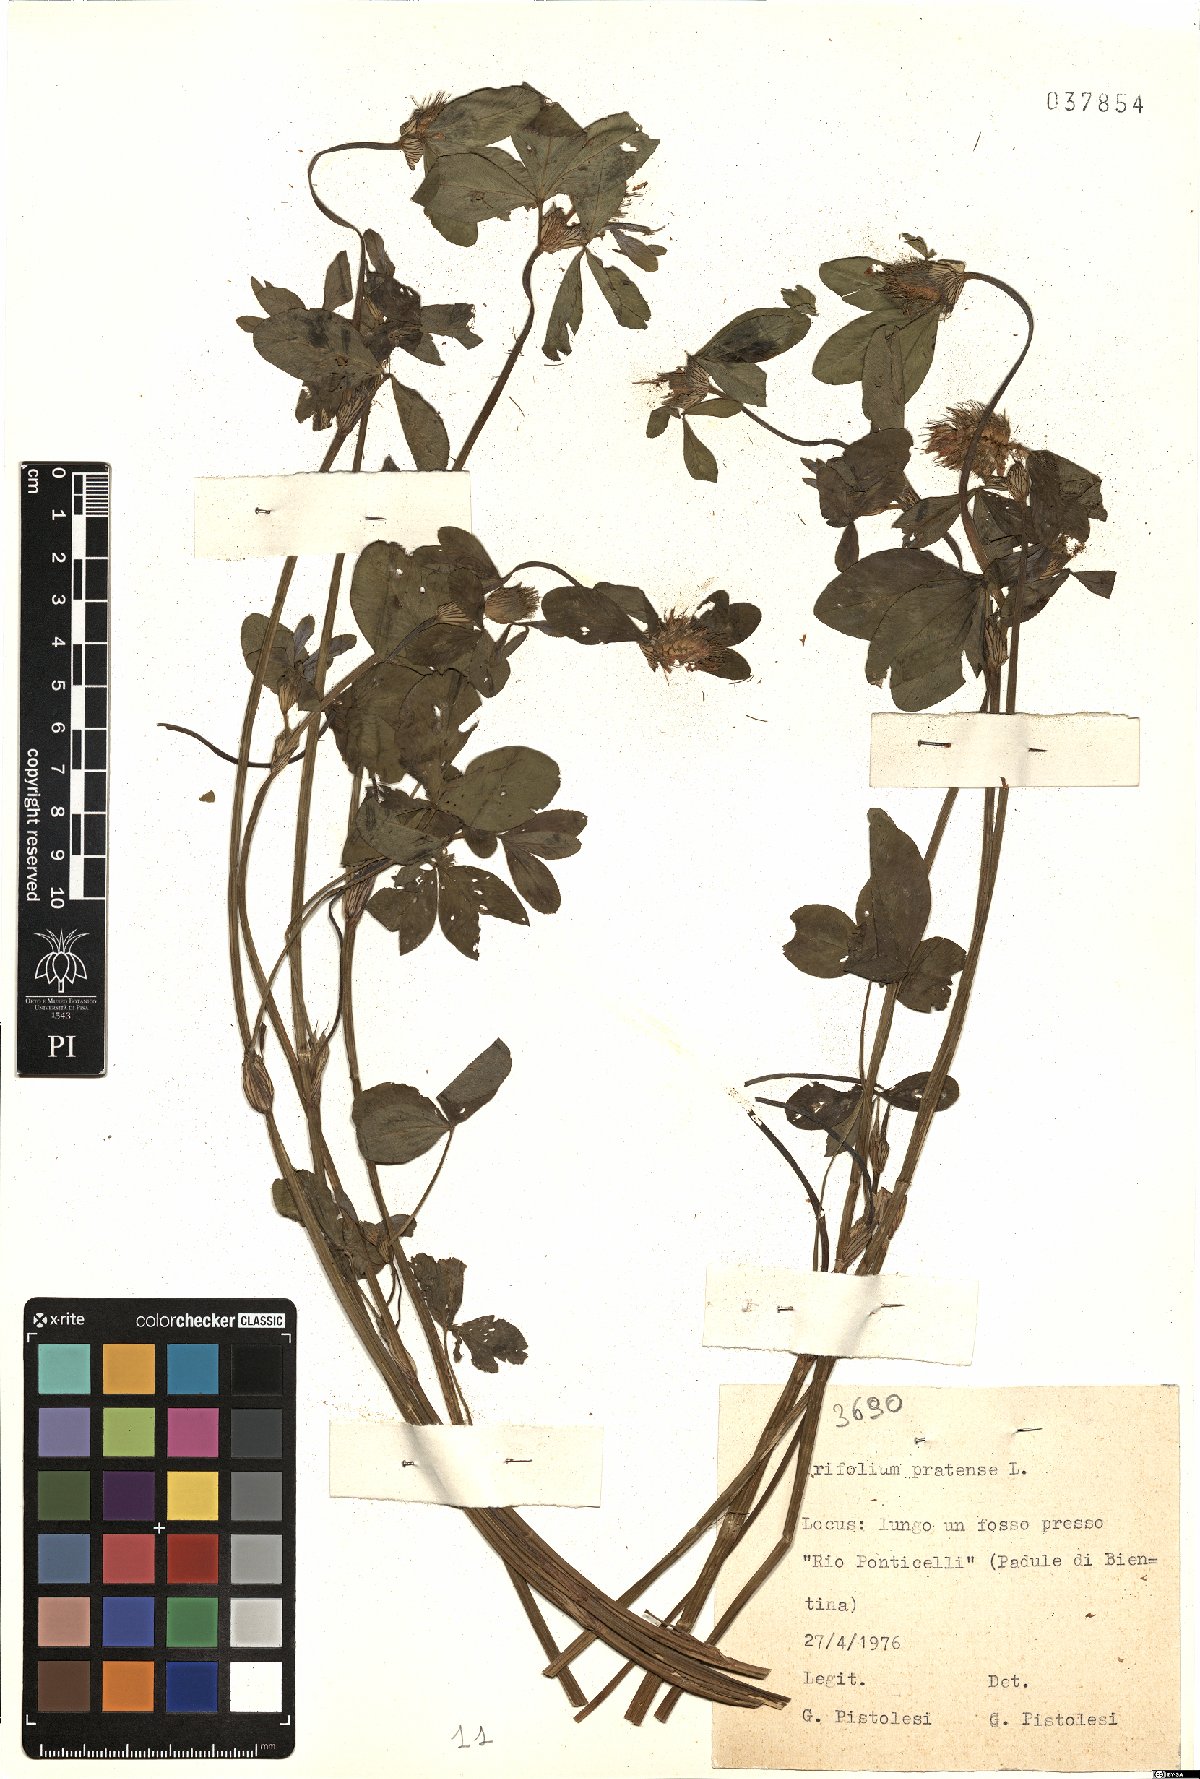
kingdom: Plantae
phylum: Tracheophyta
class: Magnoliopsida
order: Fabales
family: Fabaceae
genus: Trifolium
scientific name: Trifolium pratense
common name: Red clover
